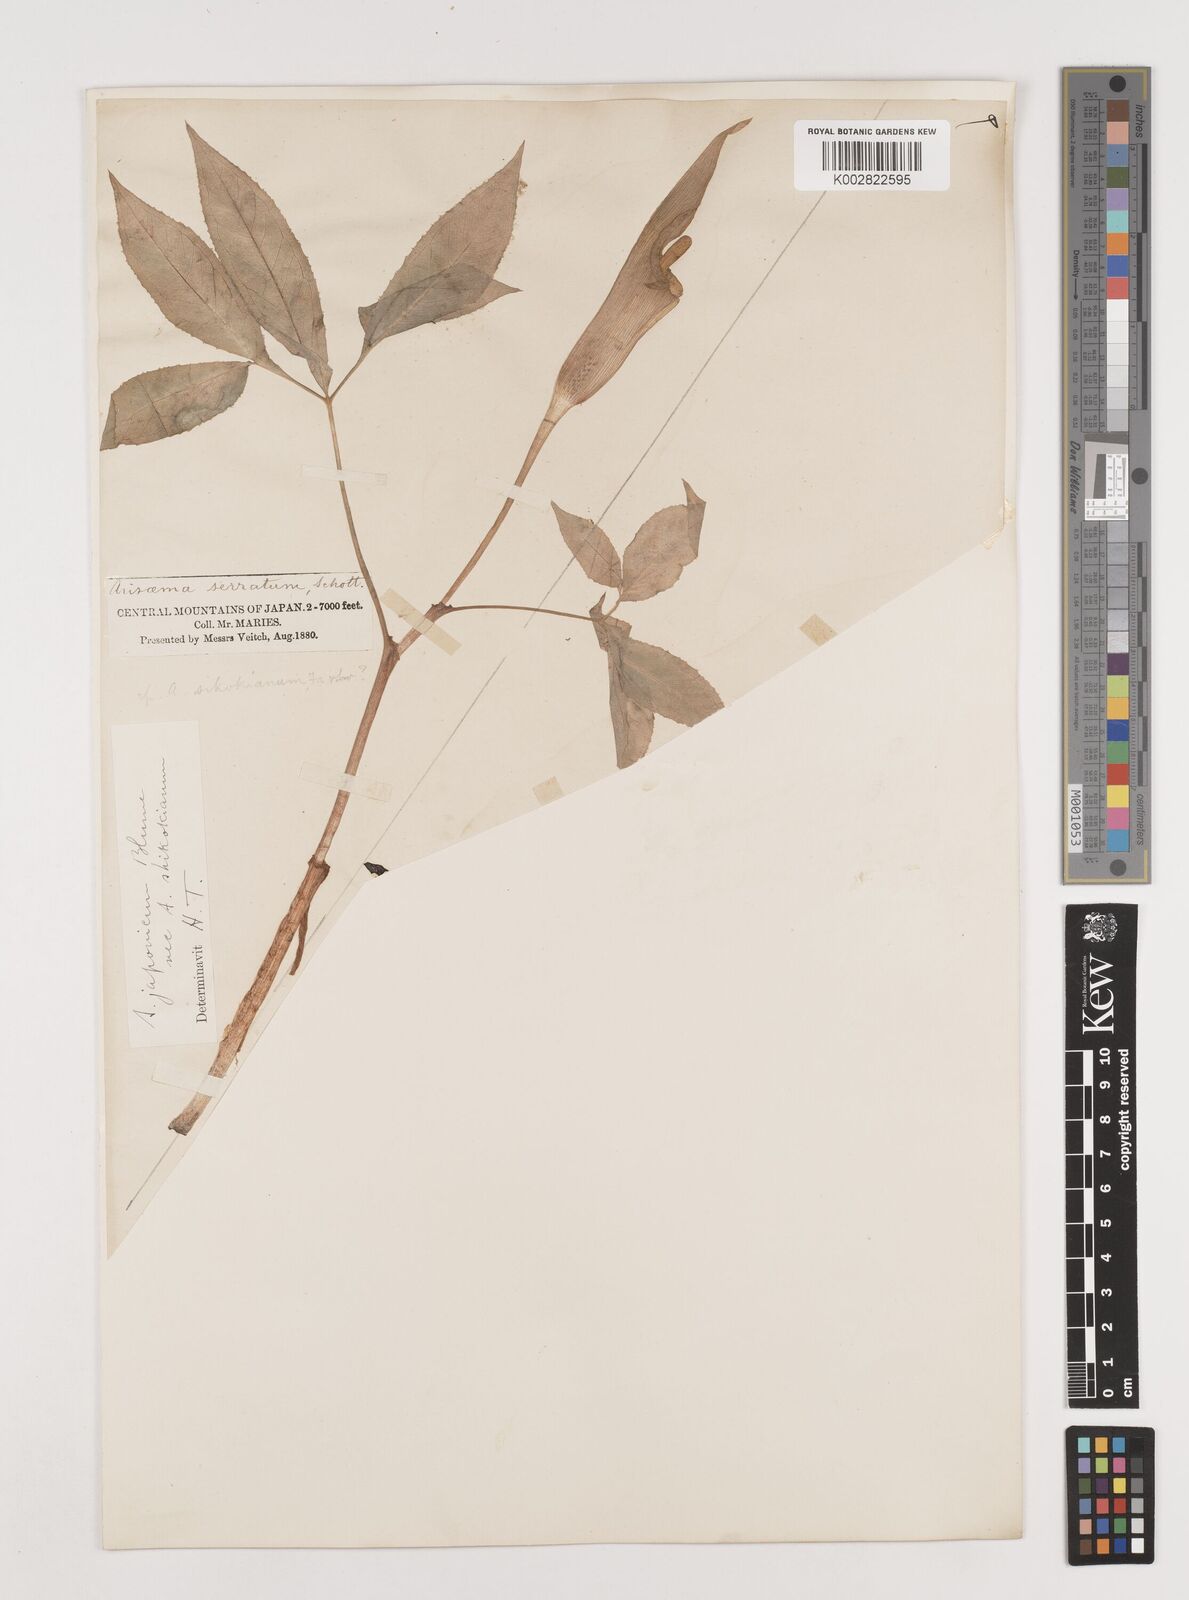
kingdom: Plantae
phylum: Tracheophyta
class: Liliopsida
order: Alismatales
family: Araceae
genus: Arisaema
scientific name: Arisaema serratum
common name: Japanese arisaema
